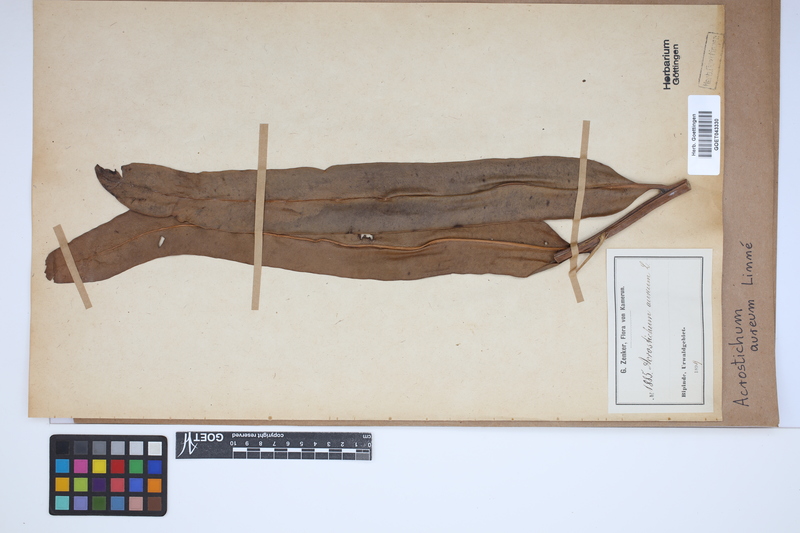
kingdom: Plantae
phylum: Tracheophyta
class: Polypodiopsida
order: Polypodiales
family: Pteridaceae
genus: Acrostichum
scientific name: Acrostichum aureum
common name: Leather fern
